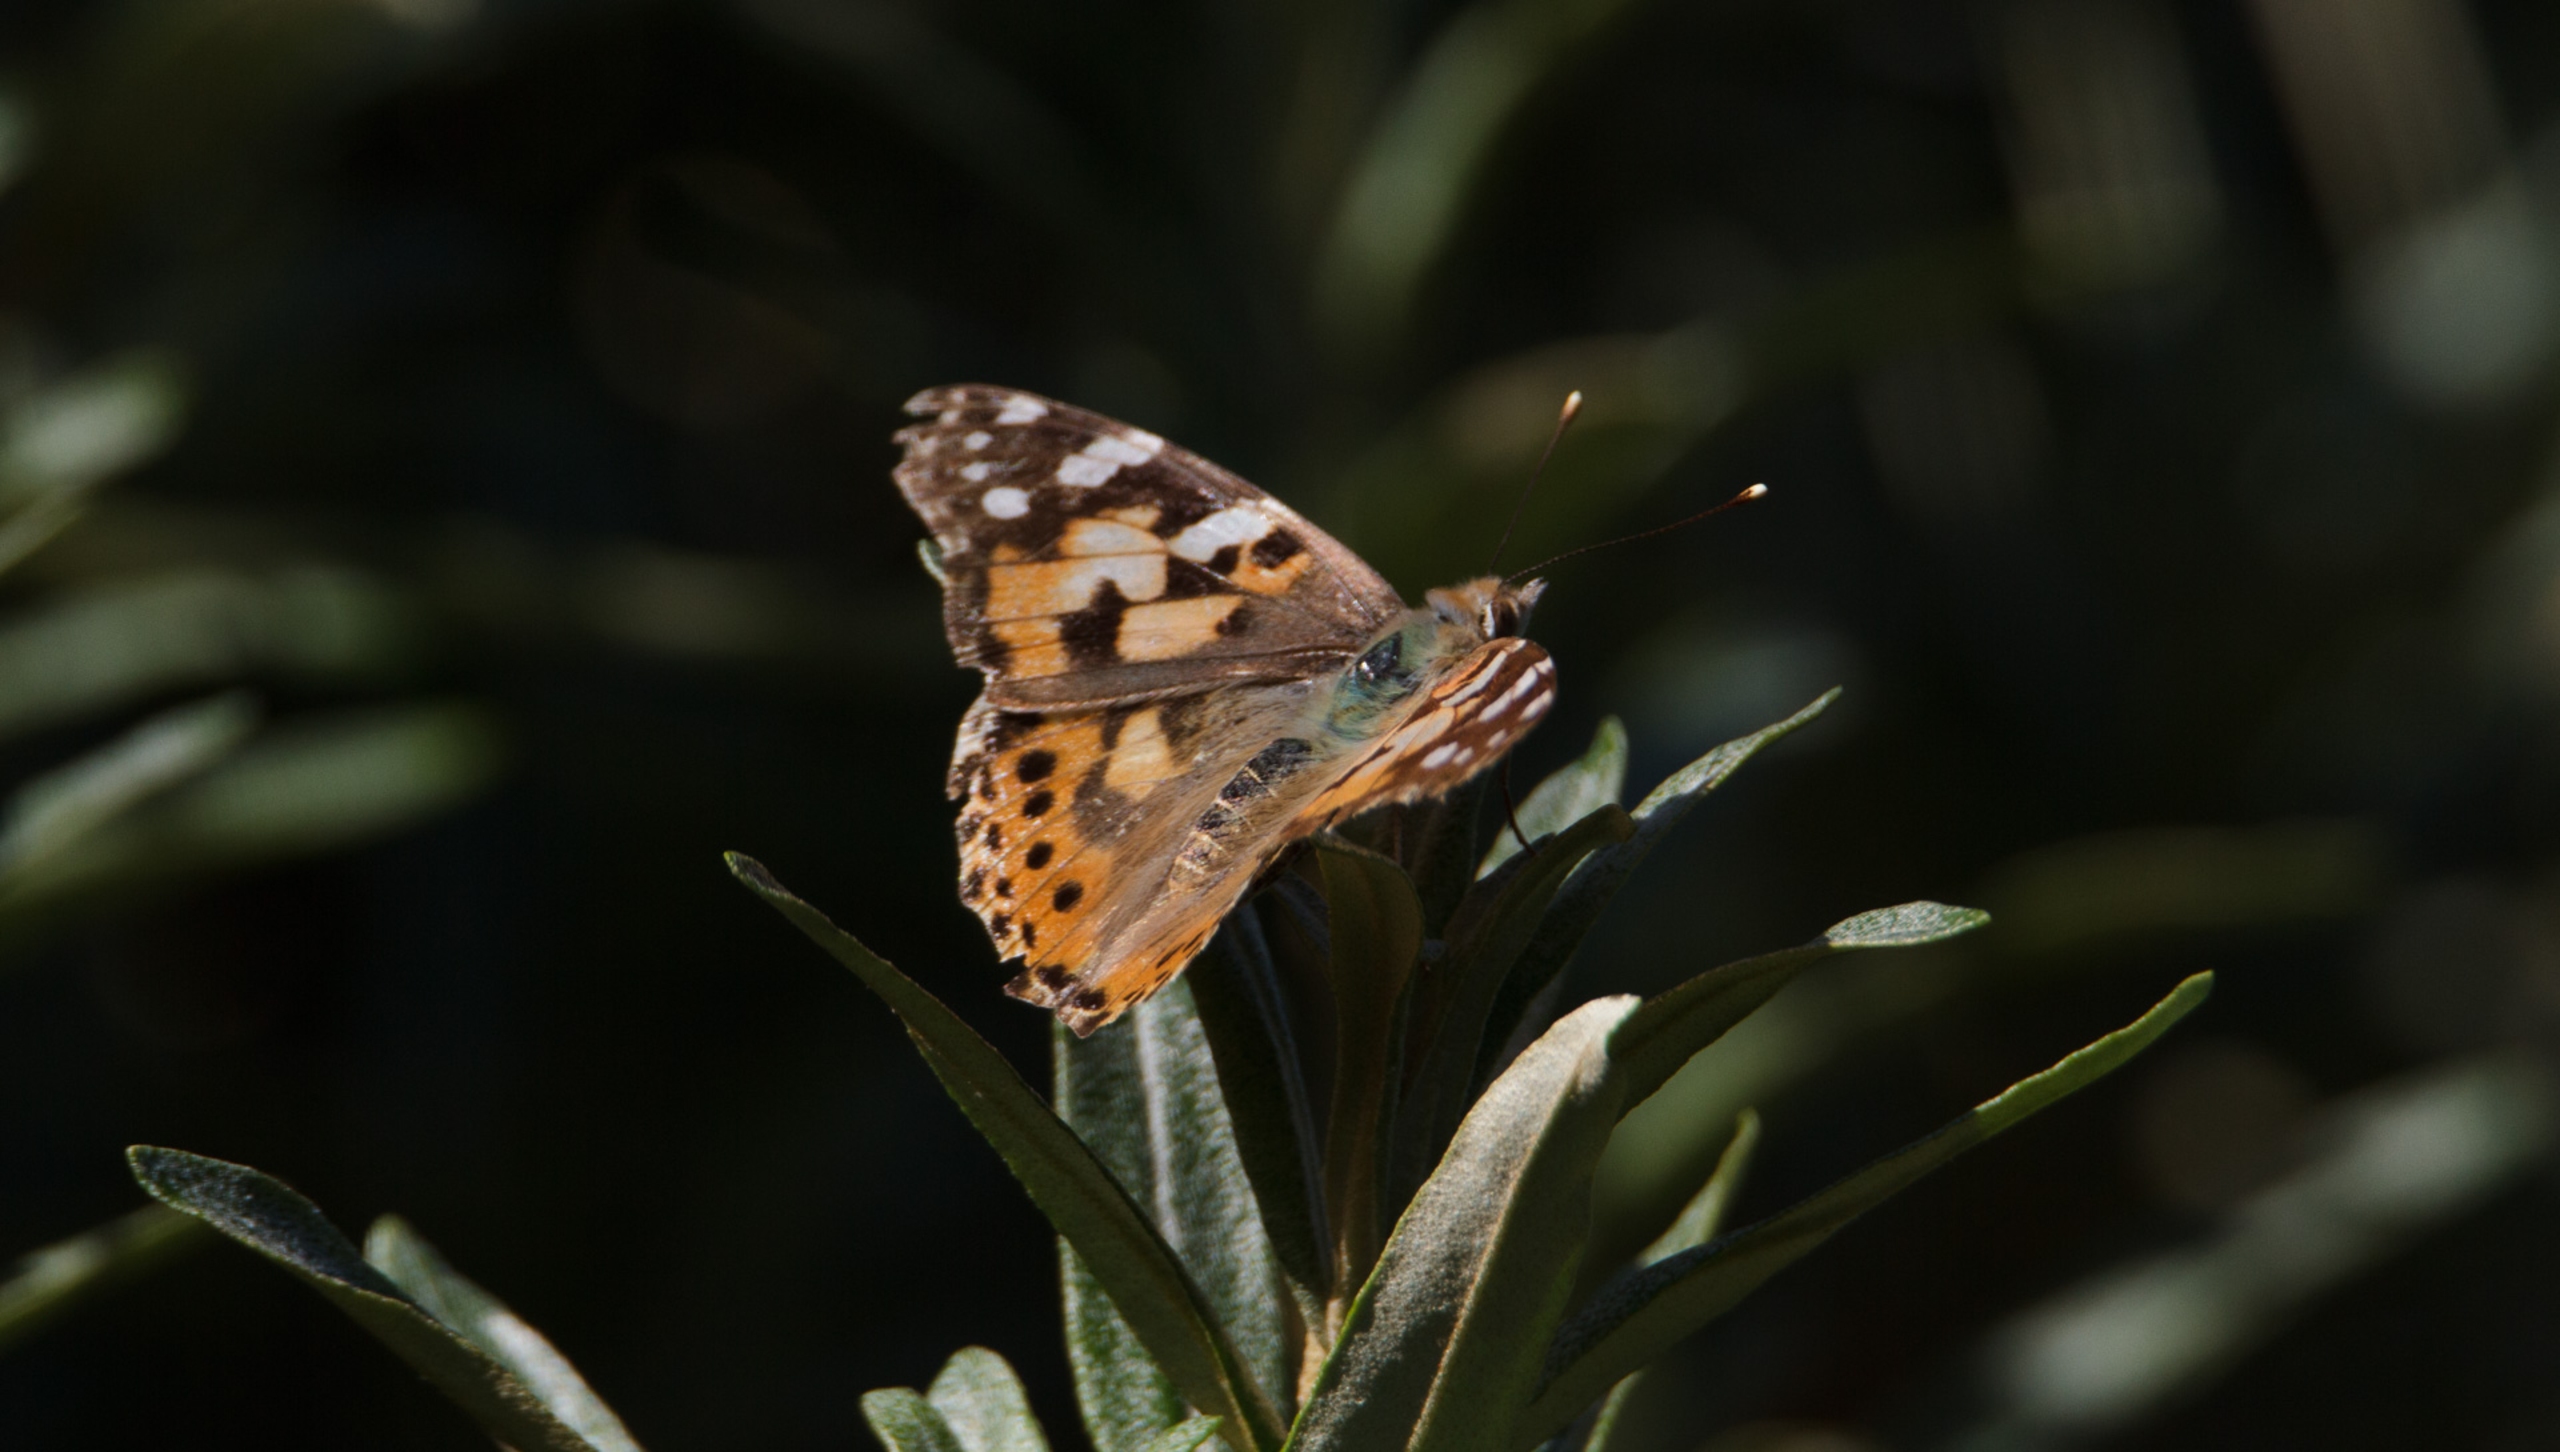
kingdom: Animalia
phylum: Arthropoda
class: Insecta
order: Lepidoptera
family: Nymphalidae
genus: Vanessa
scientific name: Vanessa cardui
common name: Tidselsommerfugl
